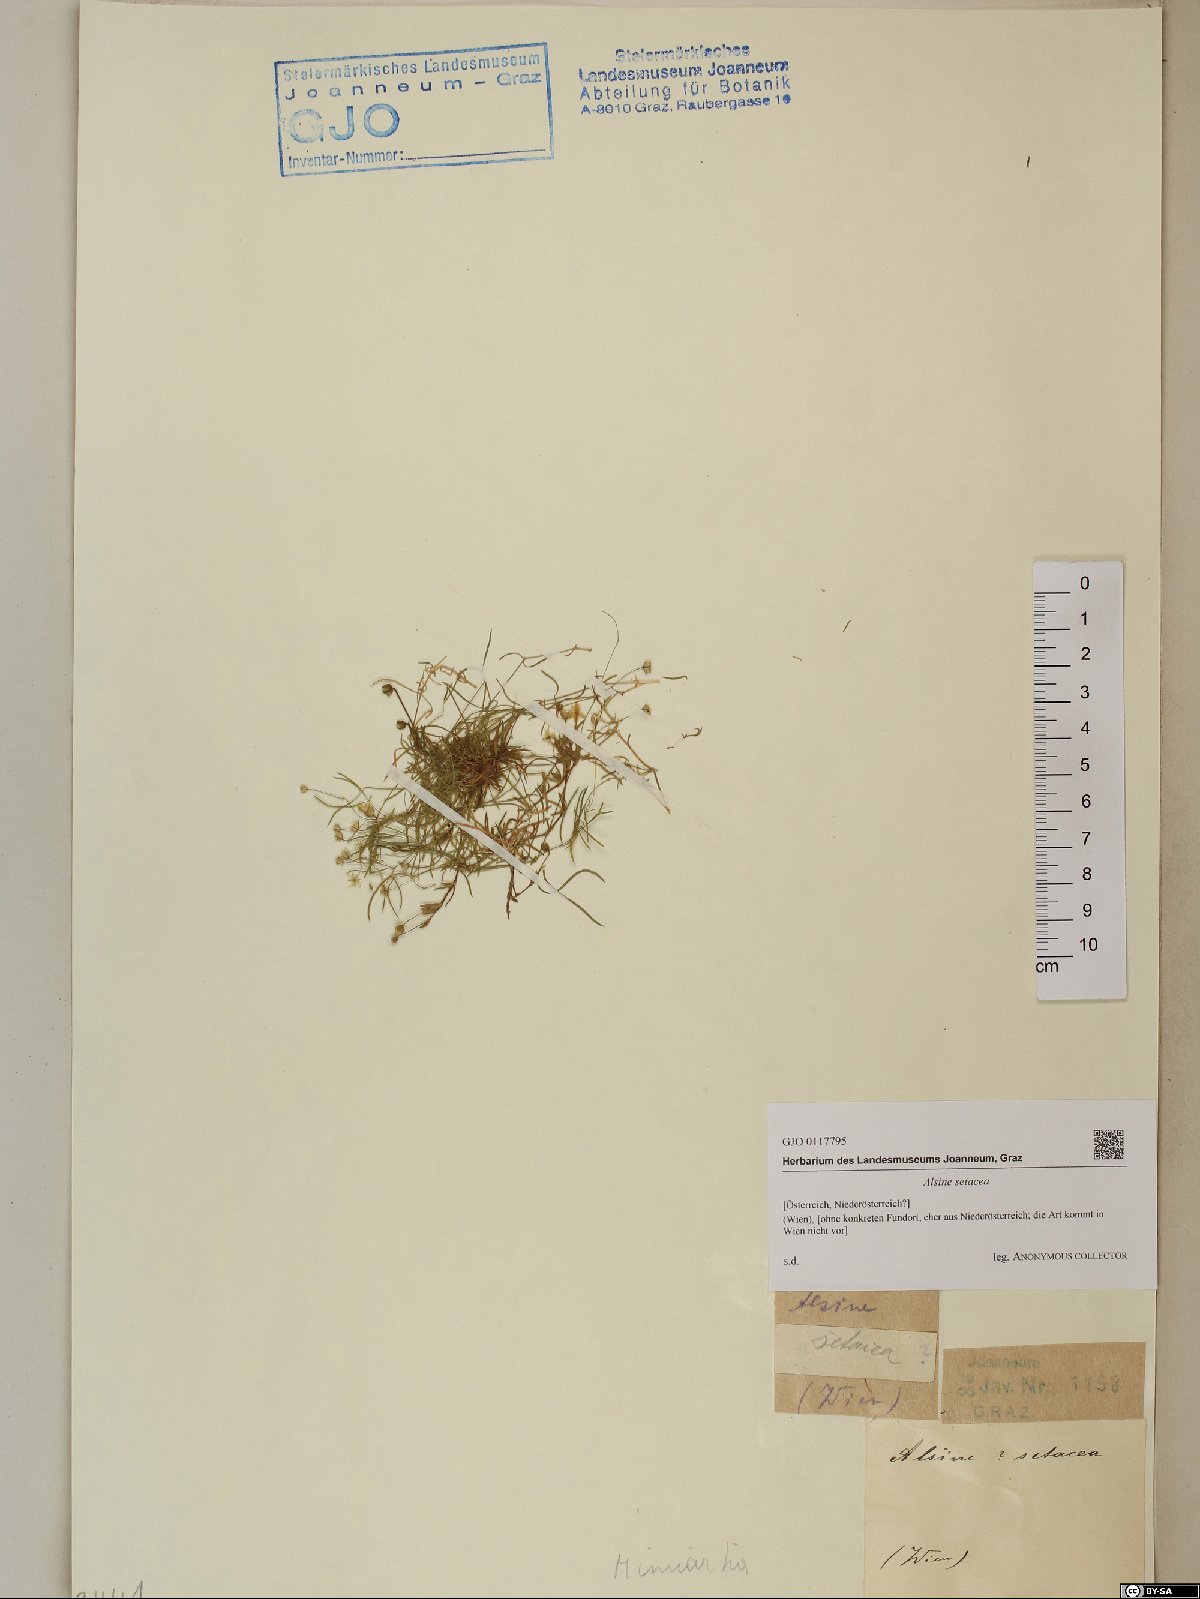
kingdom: Plantae
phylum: Tracheophyta
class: Magnoliopsida
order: Caryophyllales
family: Caryophyllaceae
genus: Minuartia
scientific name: Minuartia setacea
